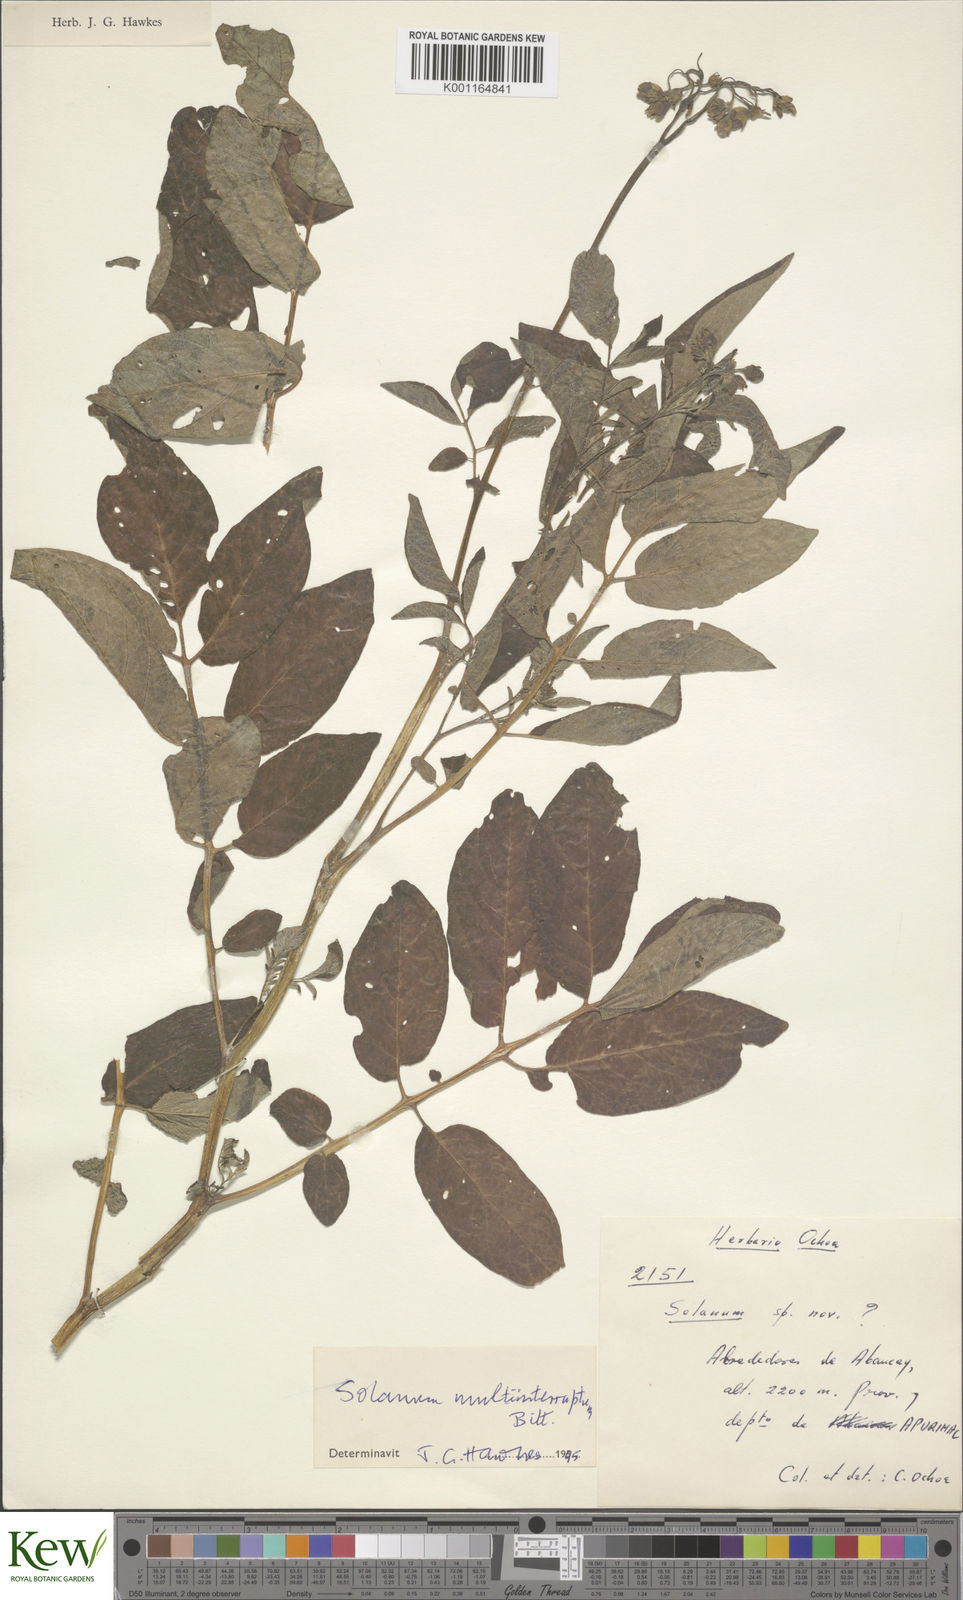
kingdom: Plantae
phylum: Tracheophyta
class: Magnoliopsida
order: Solanales
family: Solanaceae
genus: Solanum
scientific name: Solanum multiinterruptum
